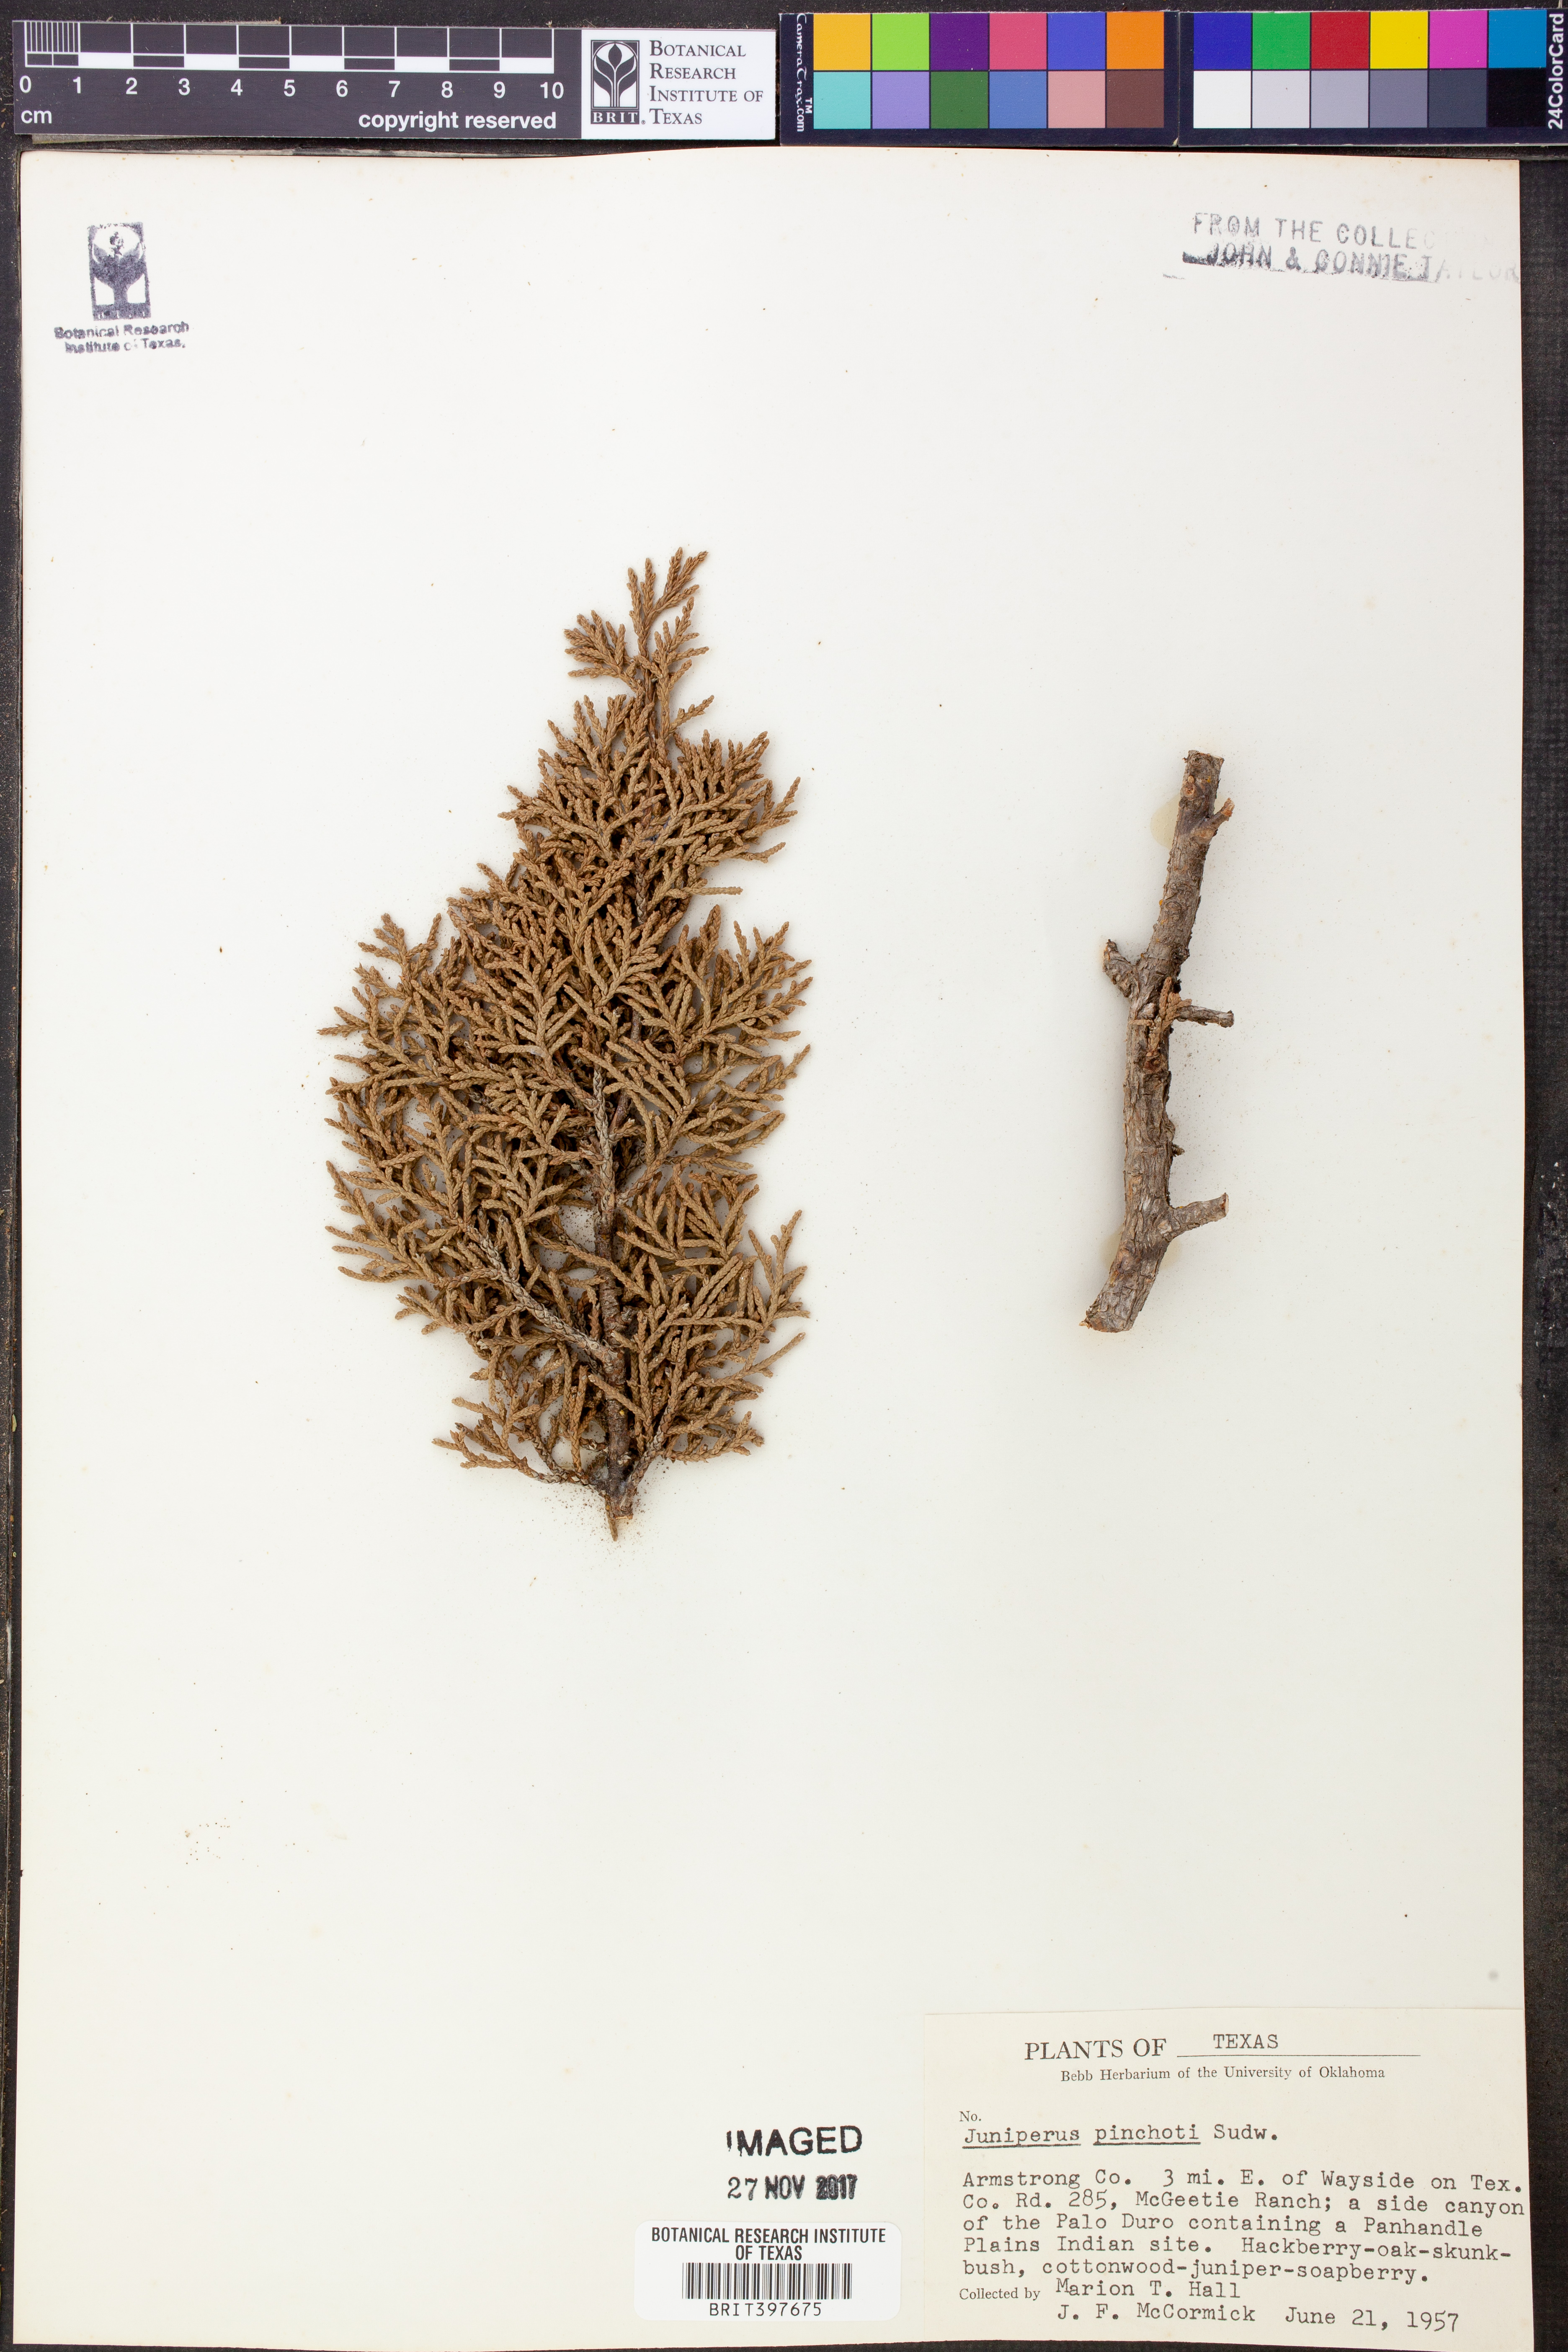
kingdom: Plantae
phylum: Tracheophyta
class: Pinopsida
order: Pinales
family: Cupressaceae
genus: Juniperus
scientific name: Juniperus pinchotii
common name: Pinchot juniper
